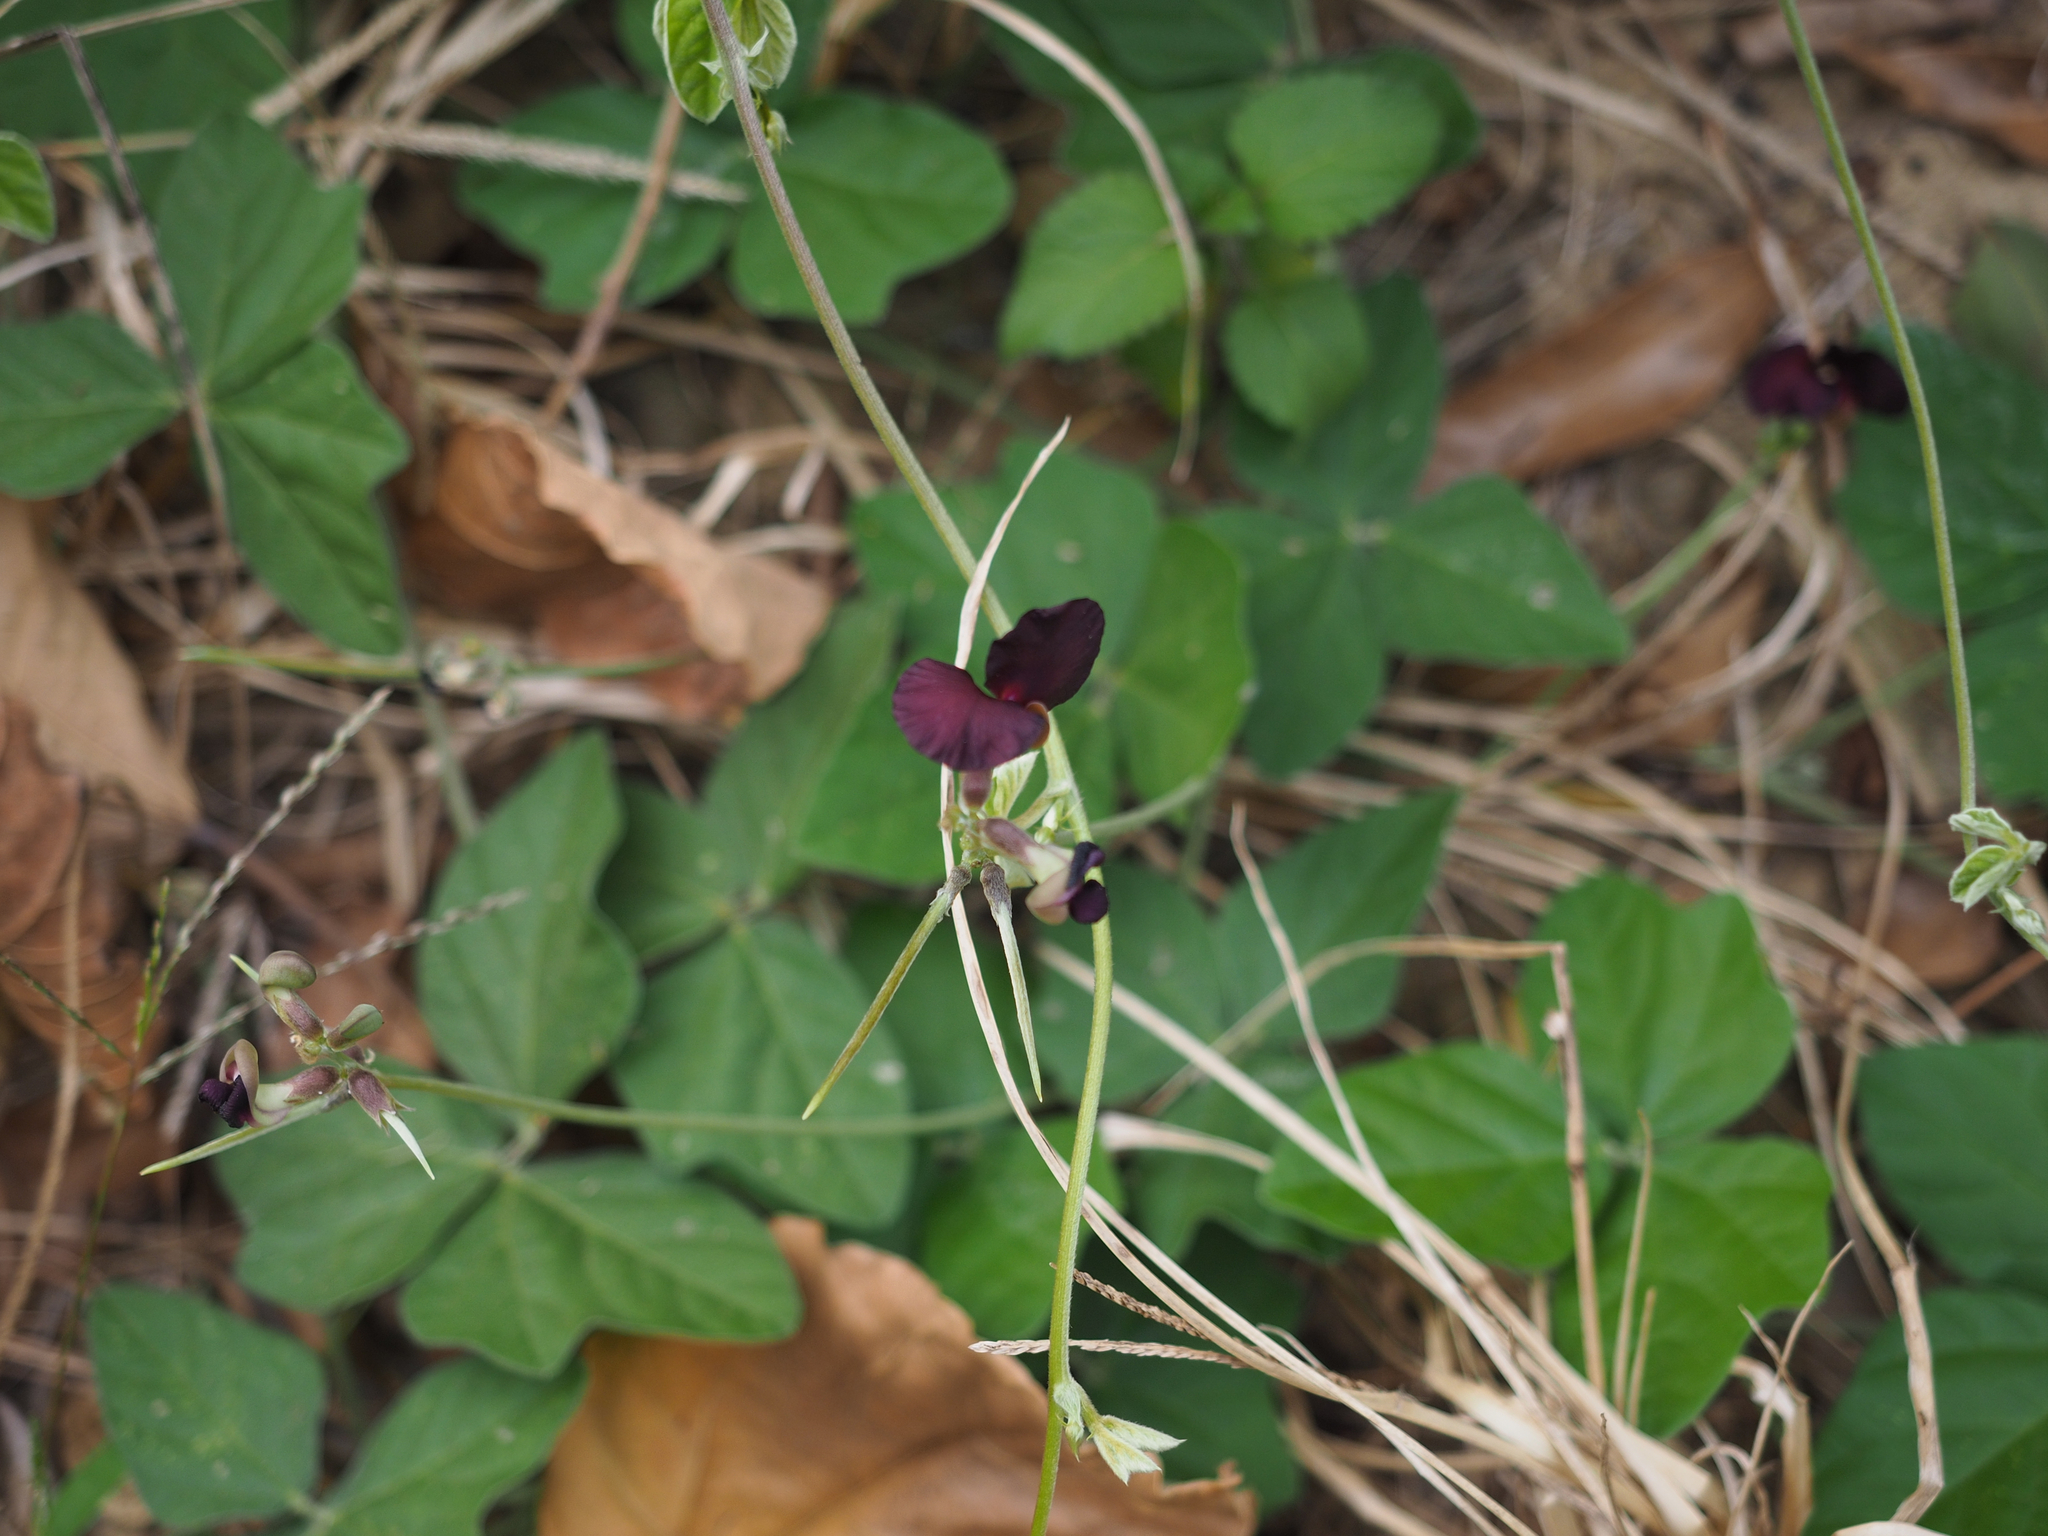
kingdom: Plantae
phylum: Tracheophyta
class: Magnoliopsida
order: Fabales
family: Fabaceae
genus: Macroptilium
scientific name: Macroptilium atropurpureum
